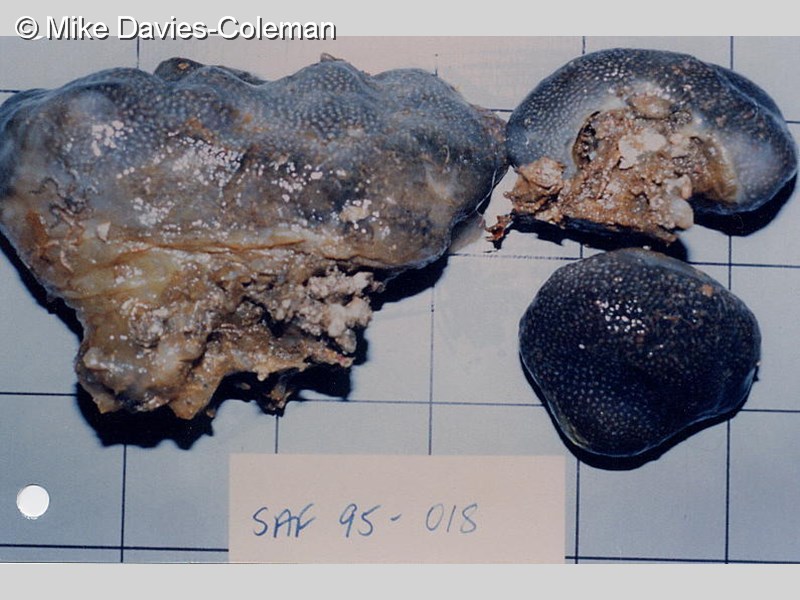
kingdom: Animalia
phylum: Chordata
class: Ascidiacea
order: Aplousobranchia
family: Pseudodistomidae
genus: Pseudodistoma
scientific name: Pseudodistoma
